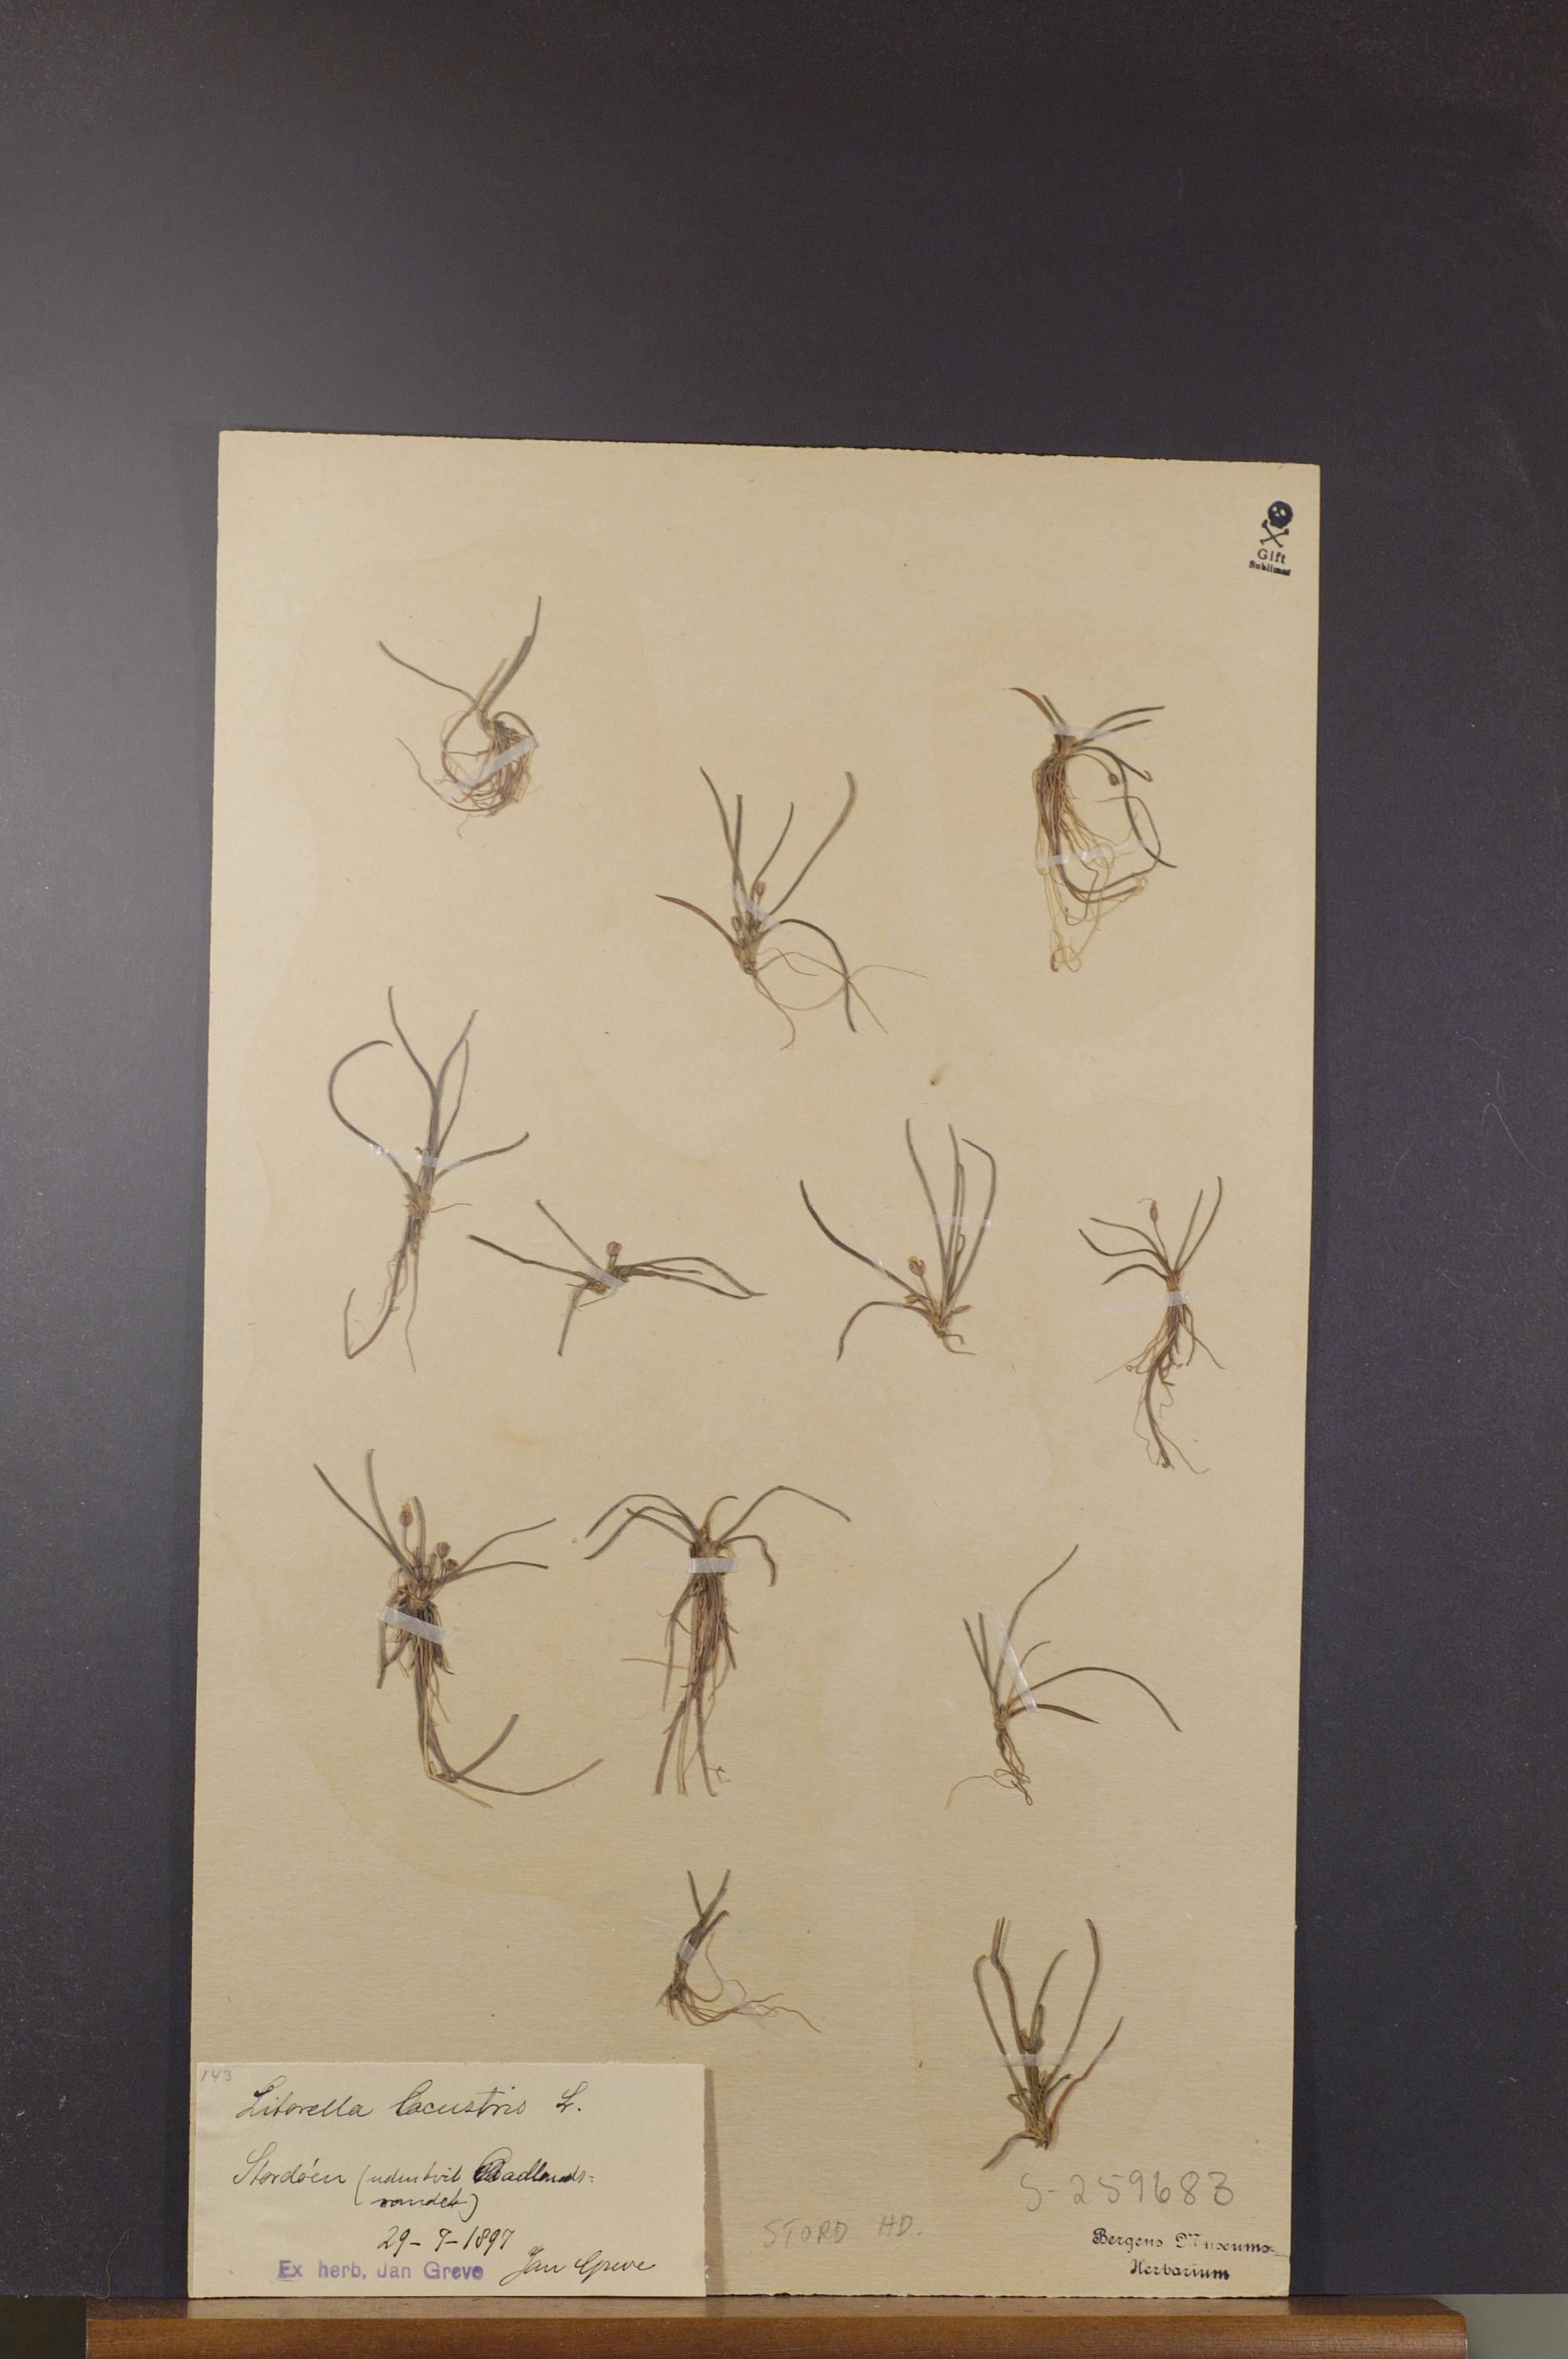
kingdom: Plantae
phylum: Tracheophyta
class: Magnoliopsida
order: Lamiales
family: Plantaginaceae
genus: Littorella
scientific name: Littorella uniflora
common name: Shoreweed
